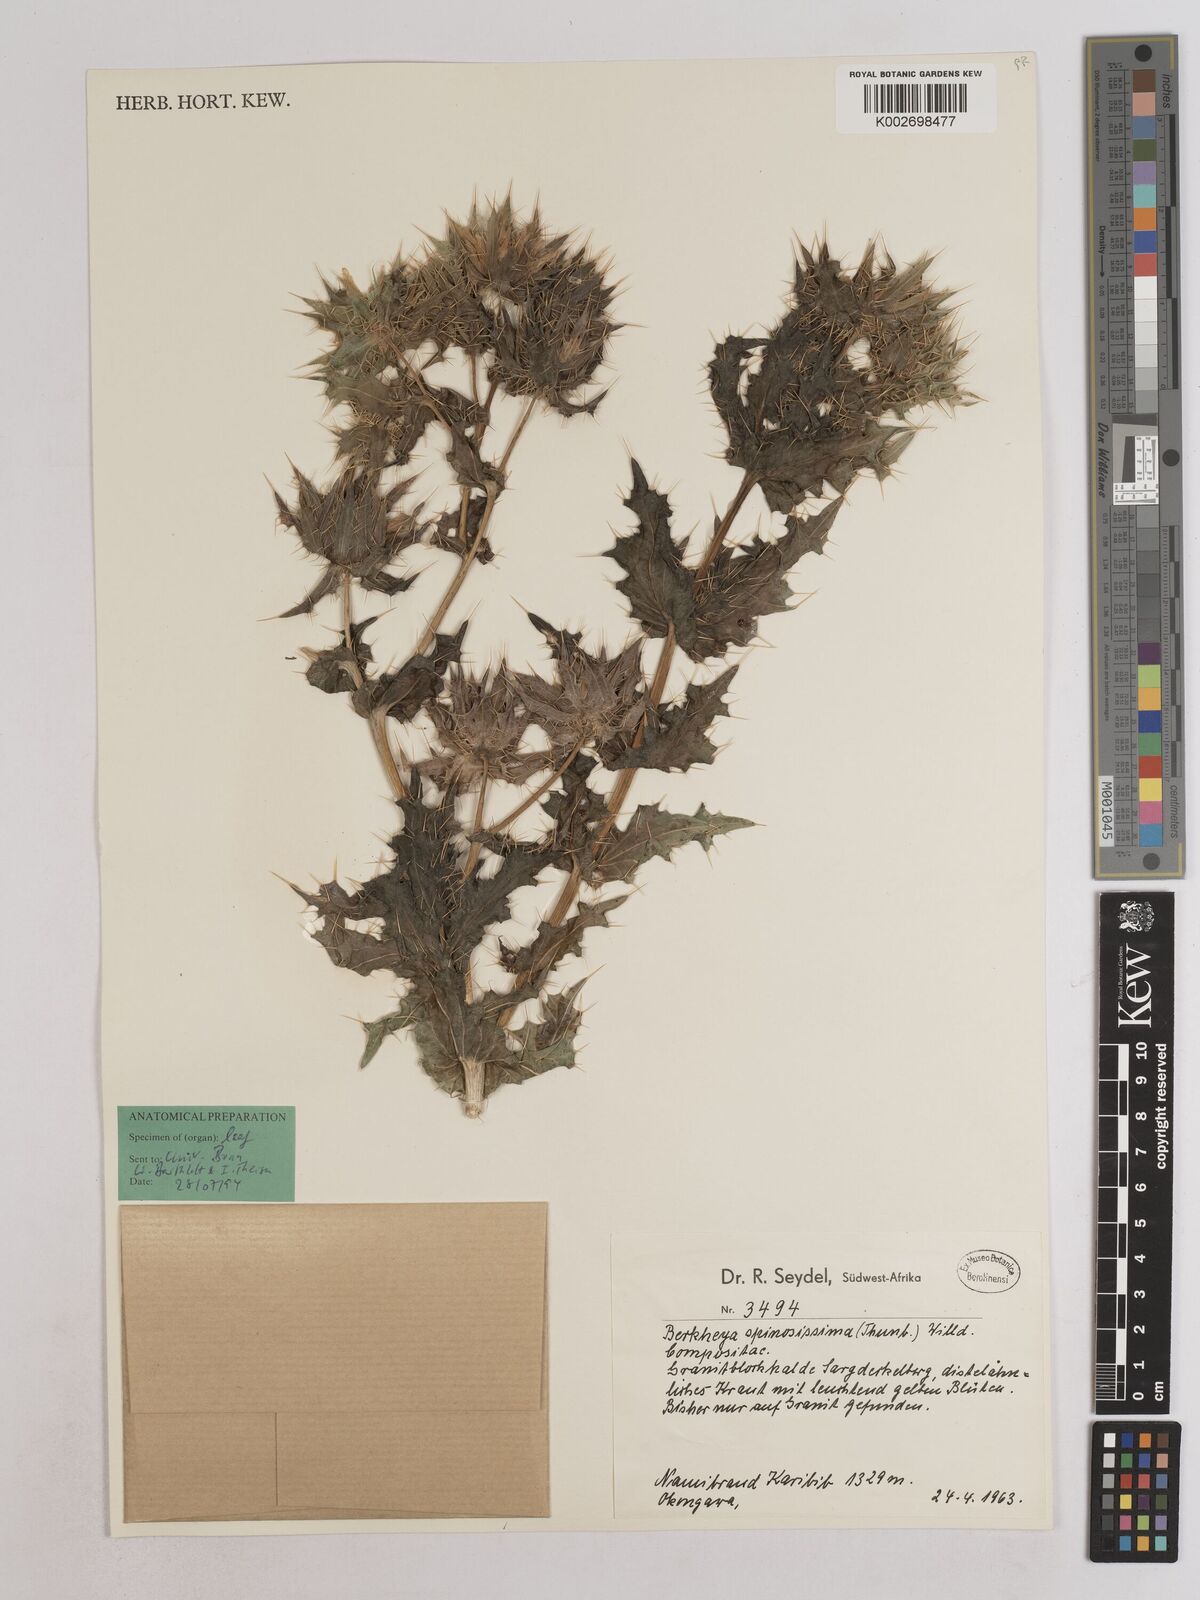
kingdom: Plantae
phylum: Tracheophyta
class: Magnoliopsida
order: Asterales
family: Asteraceae
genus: Berkheya
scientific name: Berkheya spinosissima
